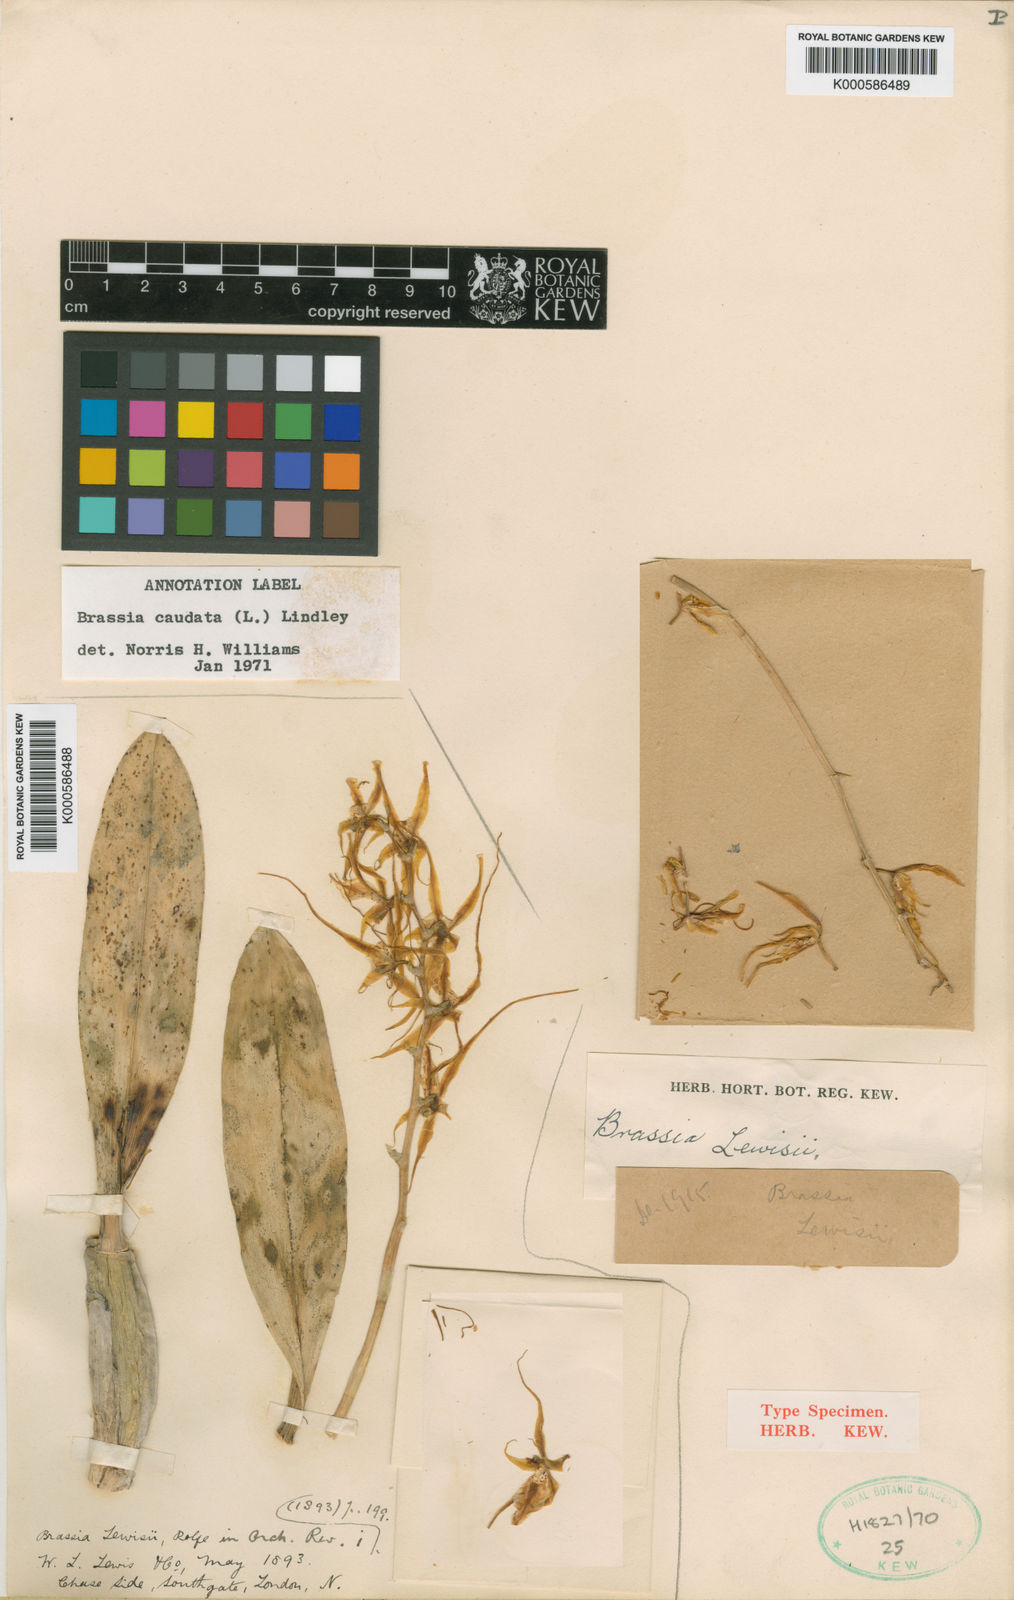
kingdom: Plantae
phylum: Tracheophyta
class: Liliopsida
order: Asparagales
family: Orchidaceae
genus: Brassia
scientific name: Brassia caudata
